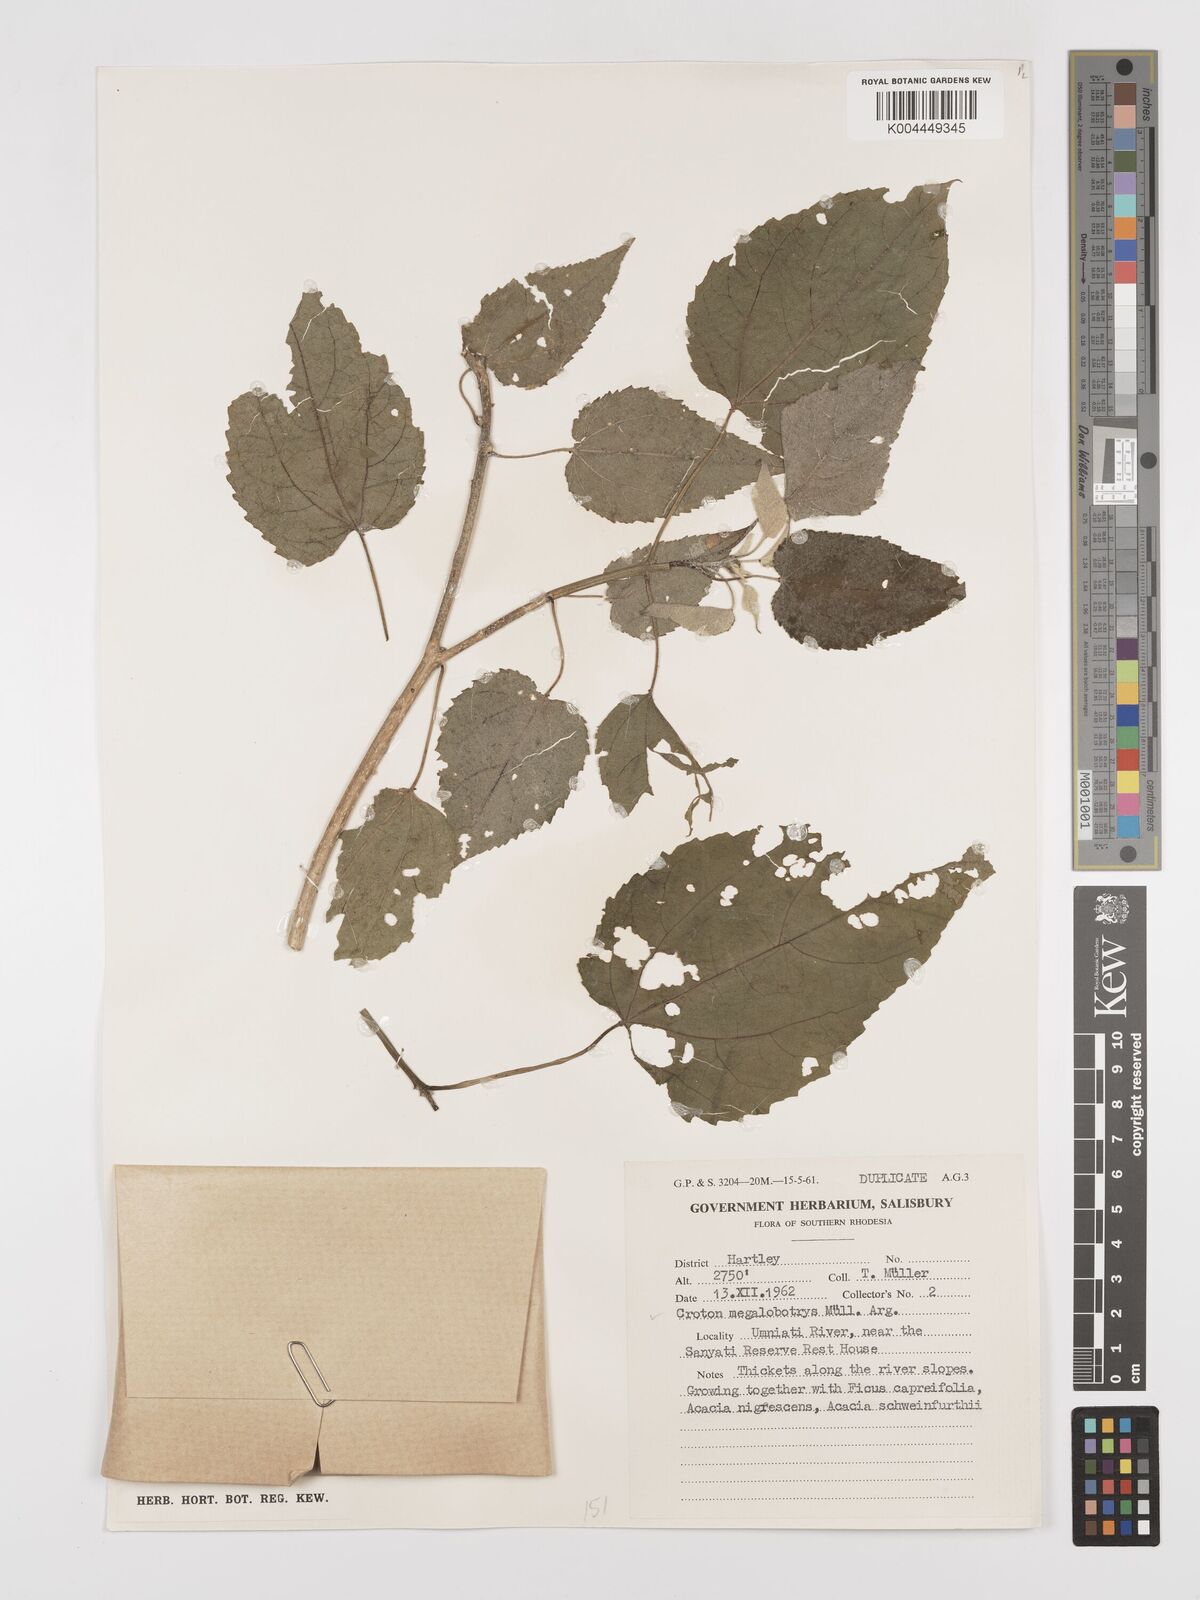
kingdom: Plantae
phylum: Tracheophyta
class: Magnoliopsida
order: Malpighiales
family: Euphorbiaceae
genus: Croton
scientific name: Croton megalobotrys
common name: Large fever berry
